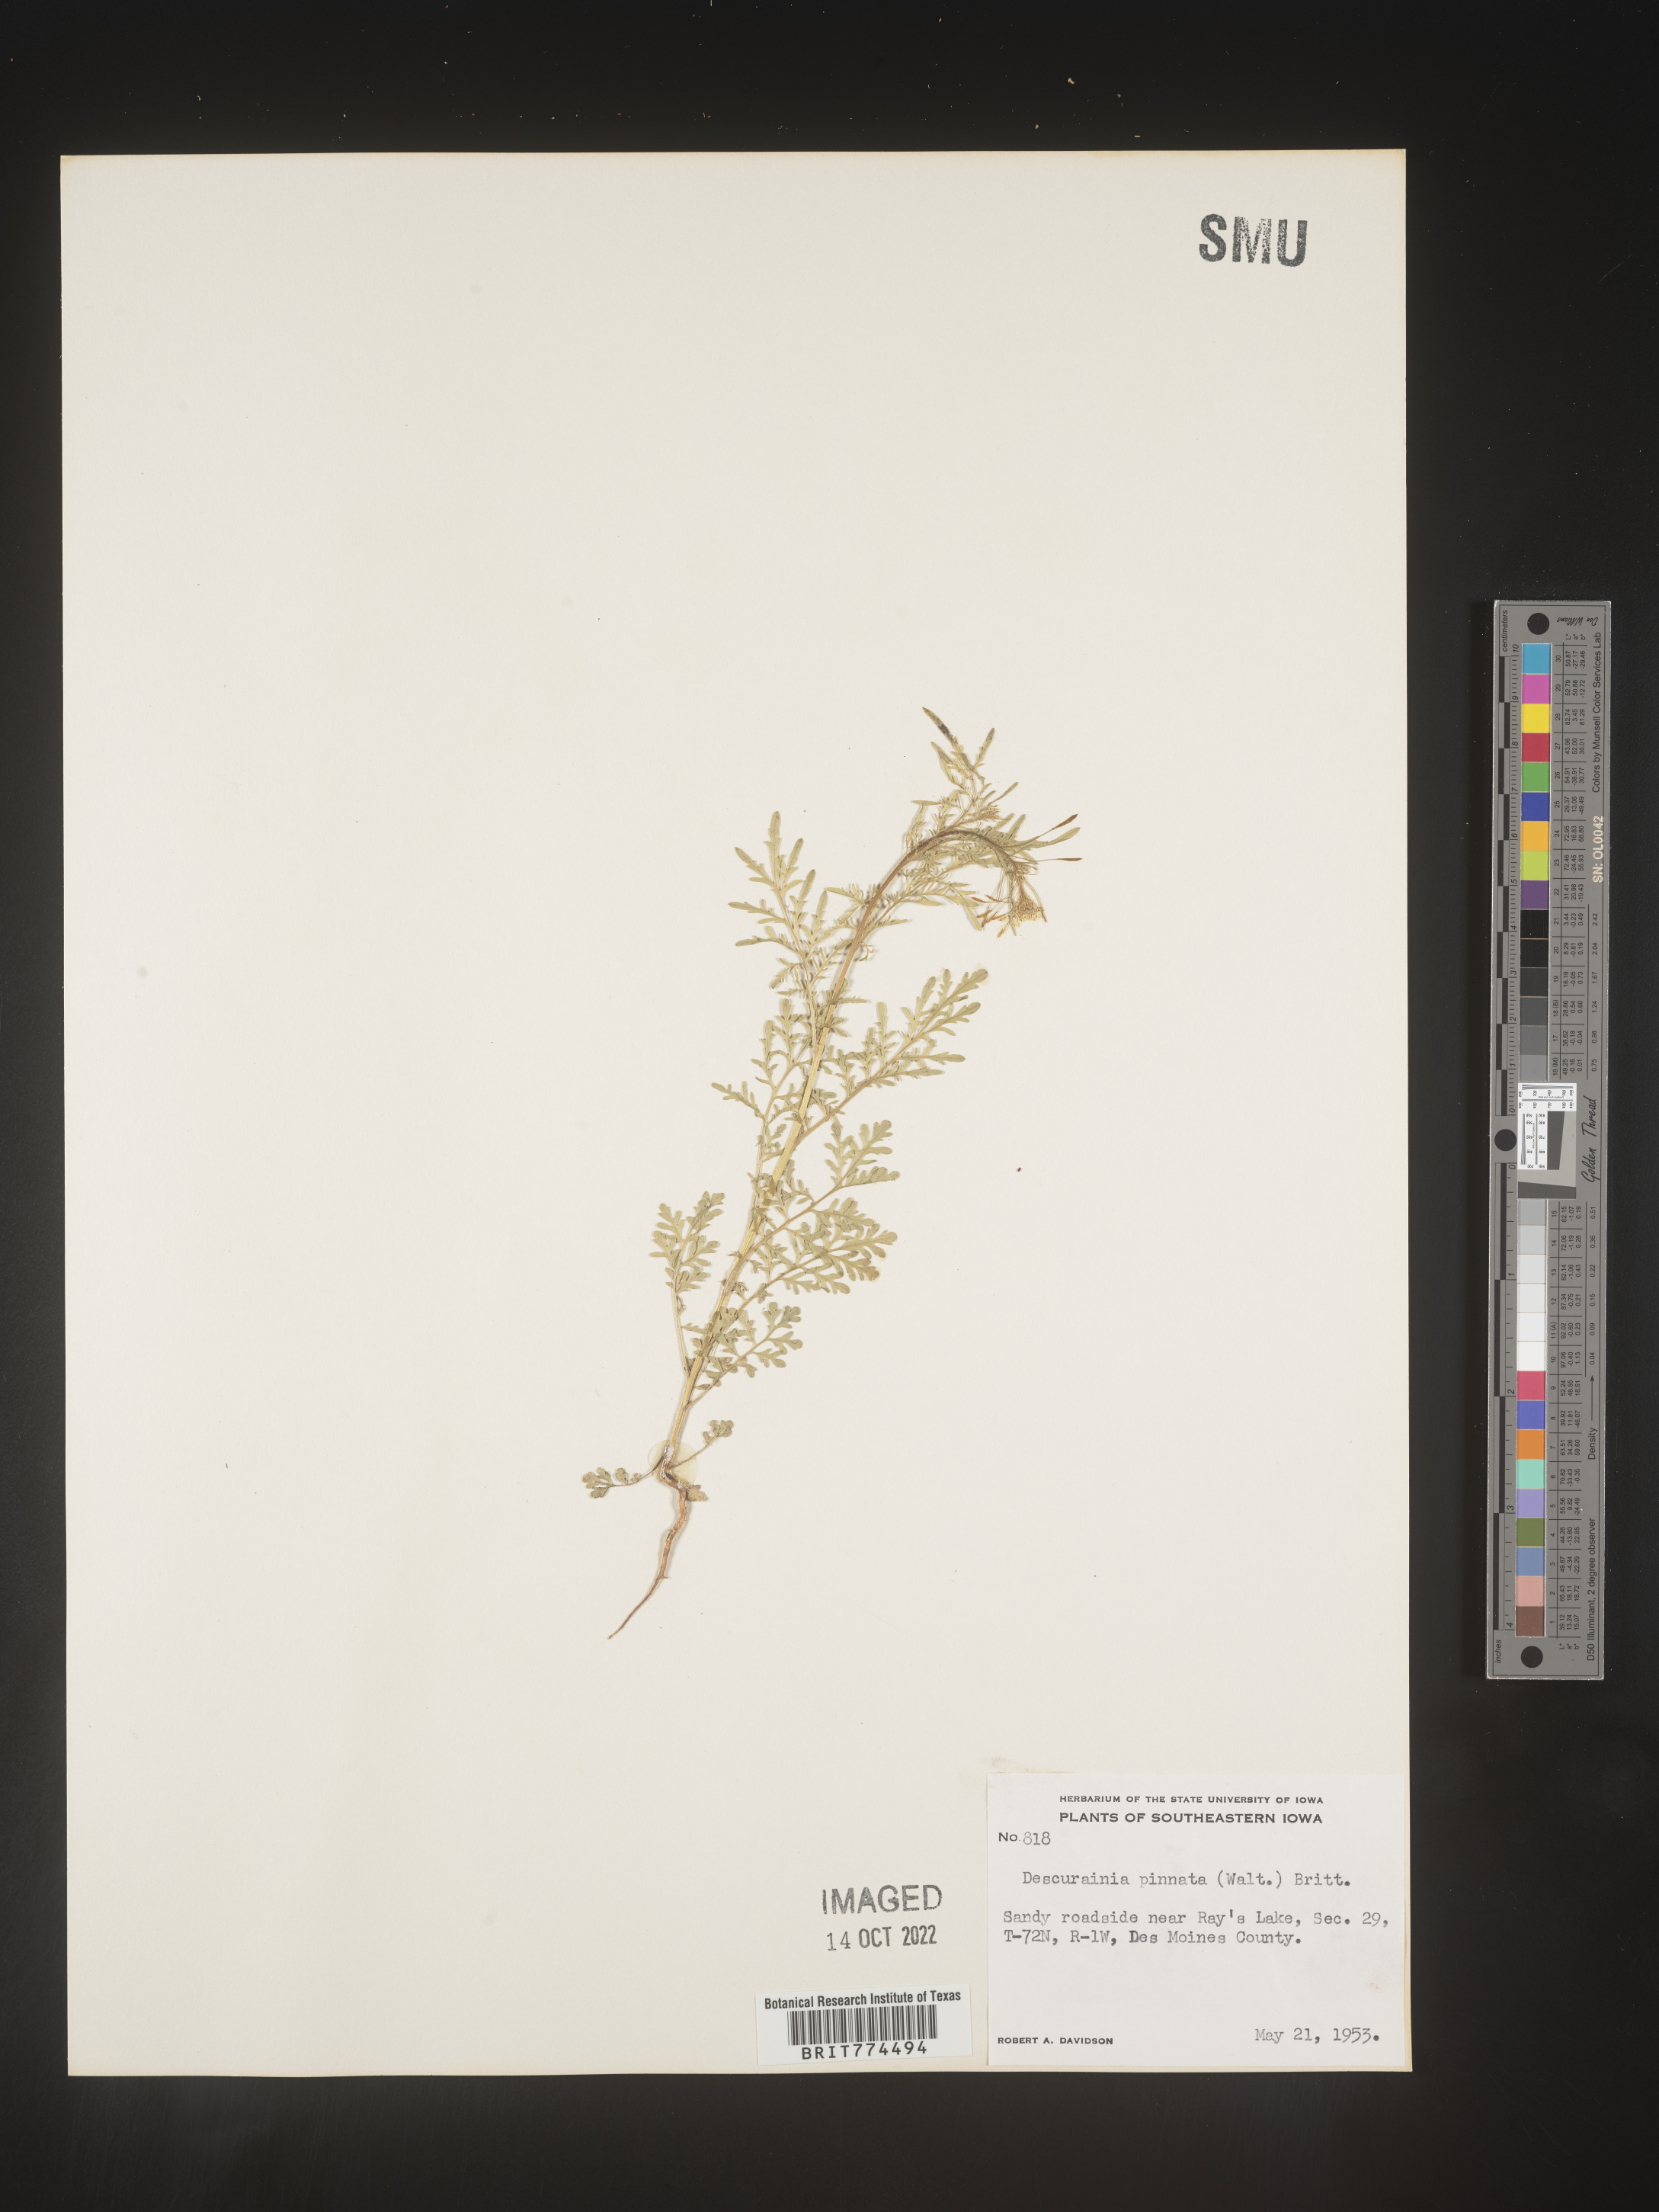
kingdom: Plantae
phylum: Tracheophyta
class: Magnoliopsida
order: Brassicales
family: Brassicaceae
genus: Descurainia
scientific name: Descurainia pinnata
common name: Western tansy mustard
